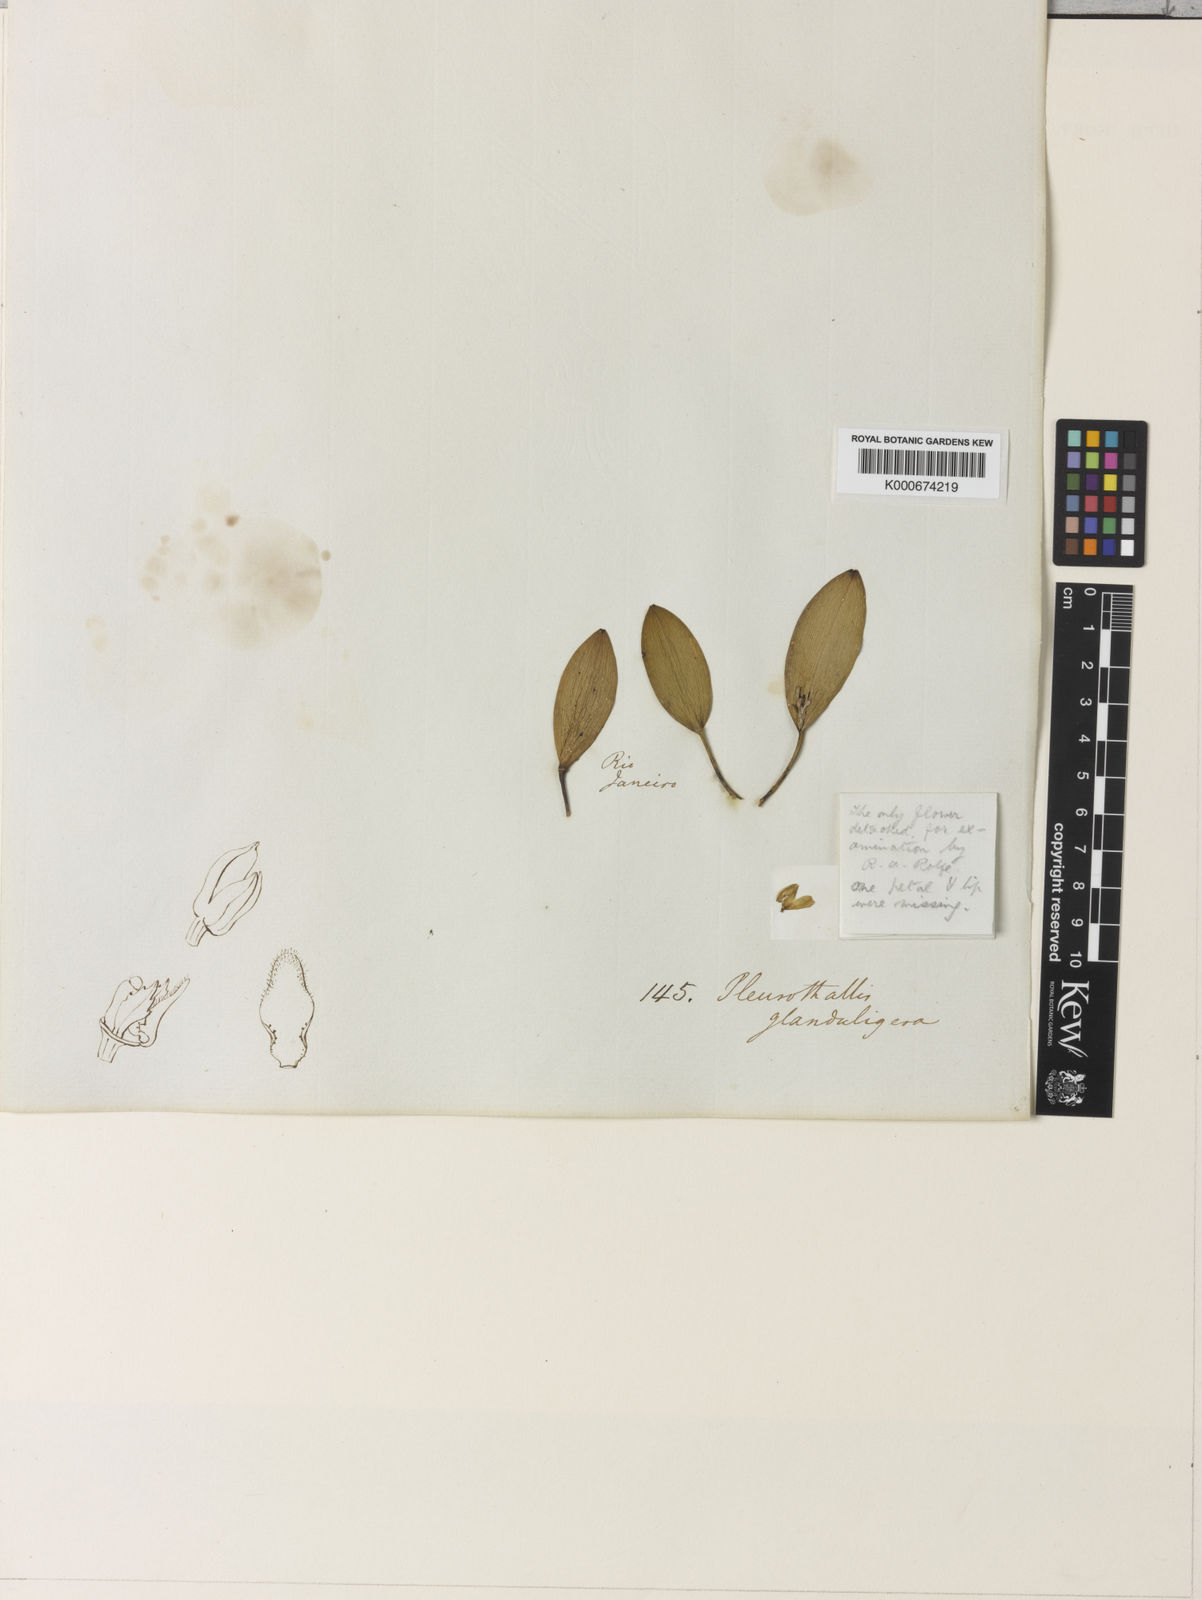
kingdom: Plantae
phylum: Tracheophyta
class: Liliopsida
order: Asparagales
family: Orchidaceae
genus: Acianthera
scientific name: Acianthera glanduligera
